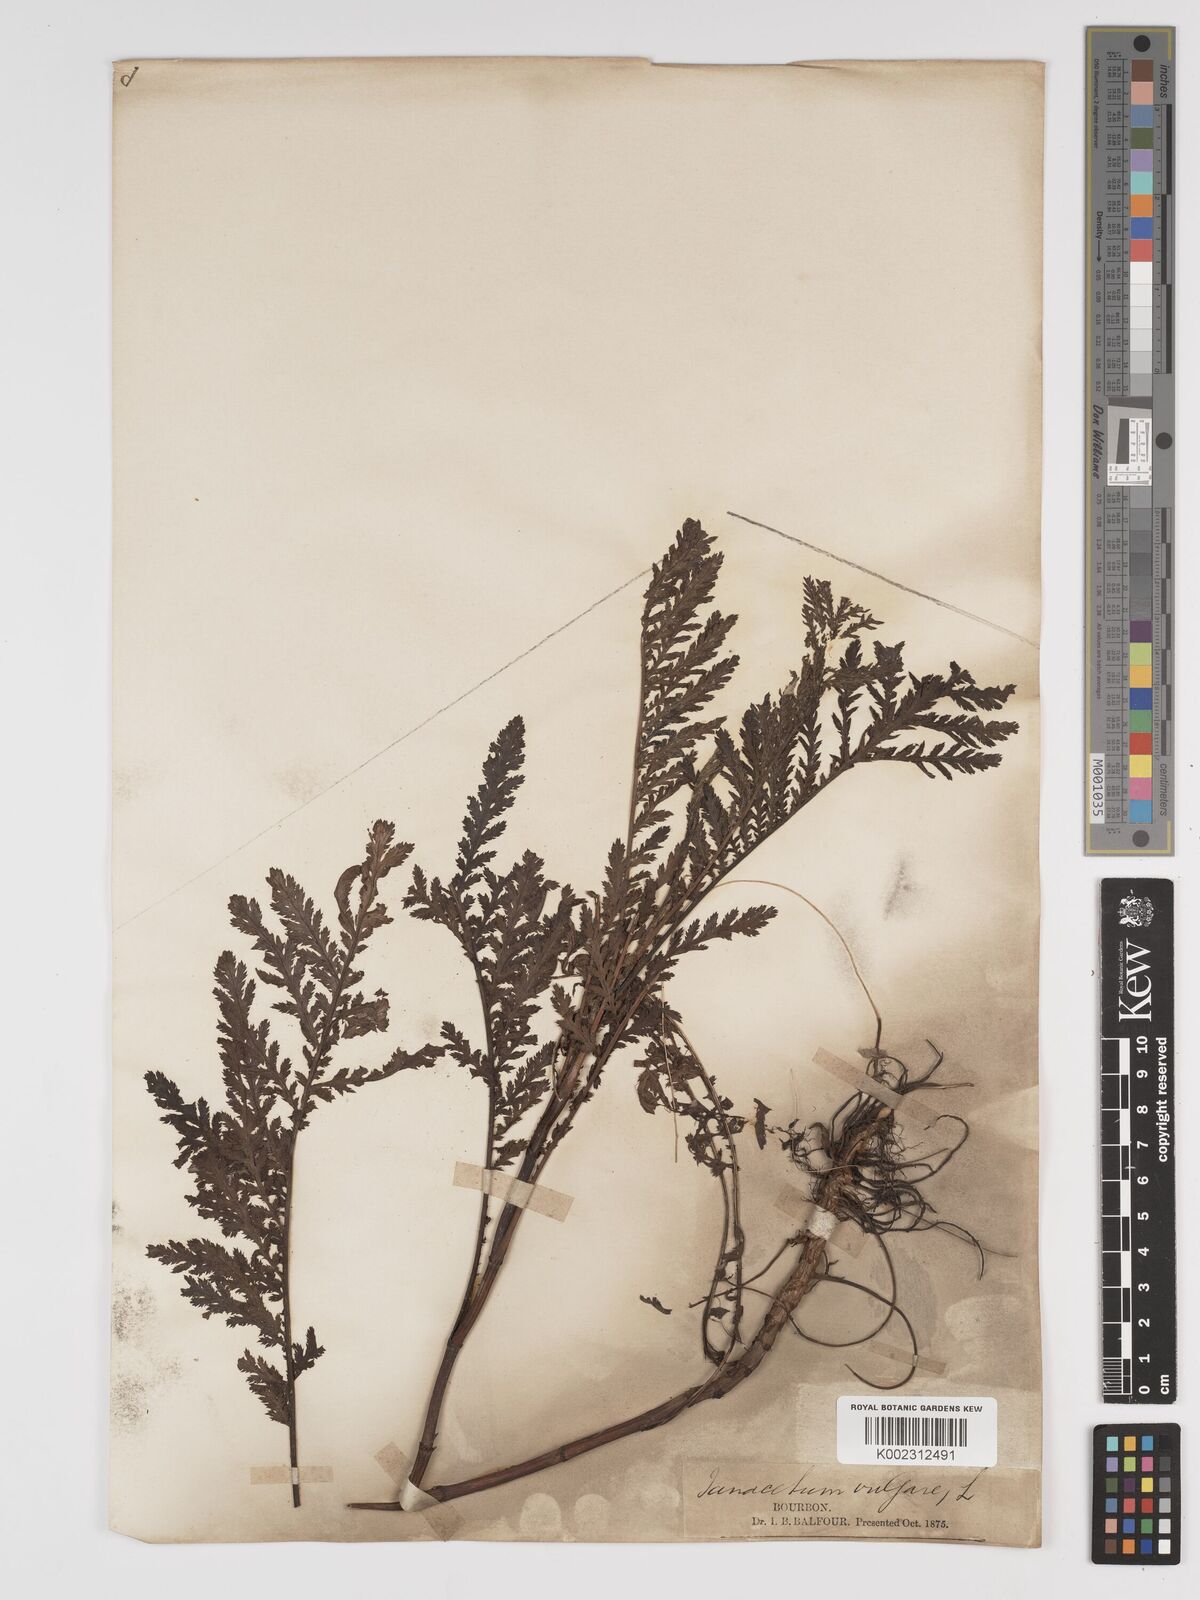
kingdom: Plantae
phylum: Tracheophyta
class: Magnoliopsida
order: Asterales
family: Asteraceae
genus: Tanacetum
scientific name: Tanacetum vulgare
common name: Common tansy
